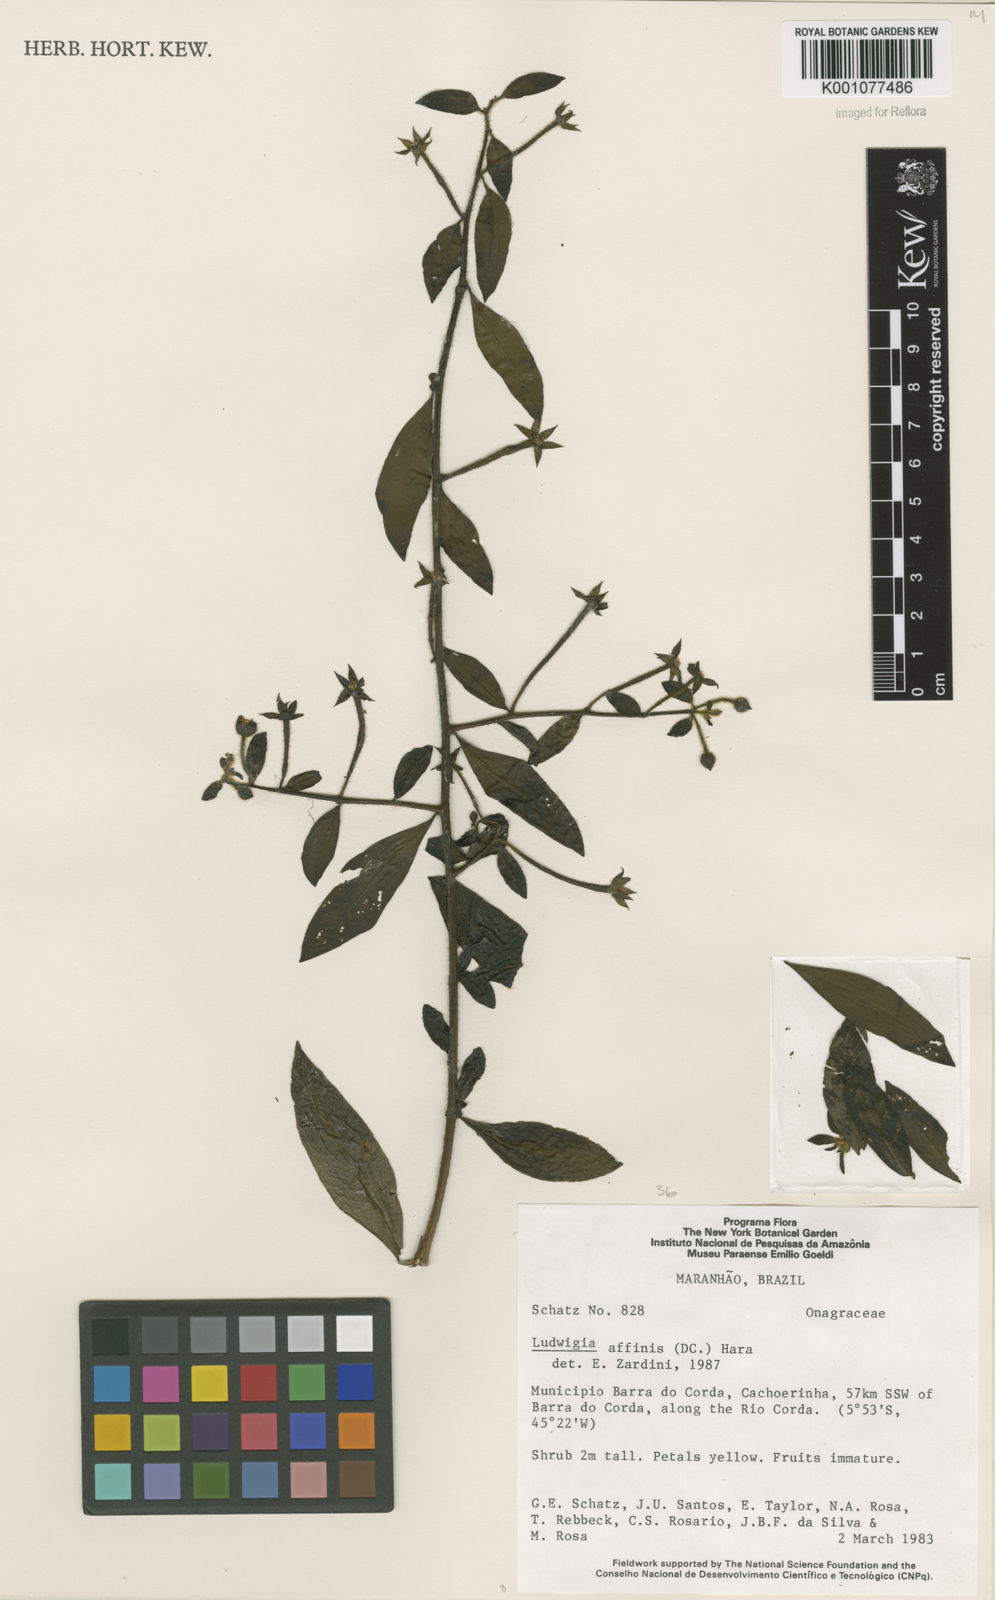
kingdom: Plantae
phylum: Tracheophyta
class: Magnoliopsida
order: Myrtales
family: Onagraceae
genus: Ludwigia
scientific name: Ludwigia affinis
